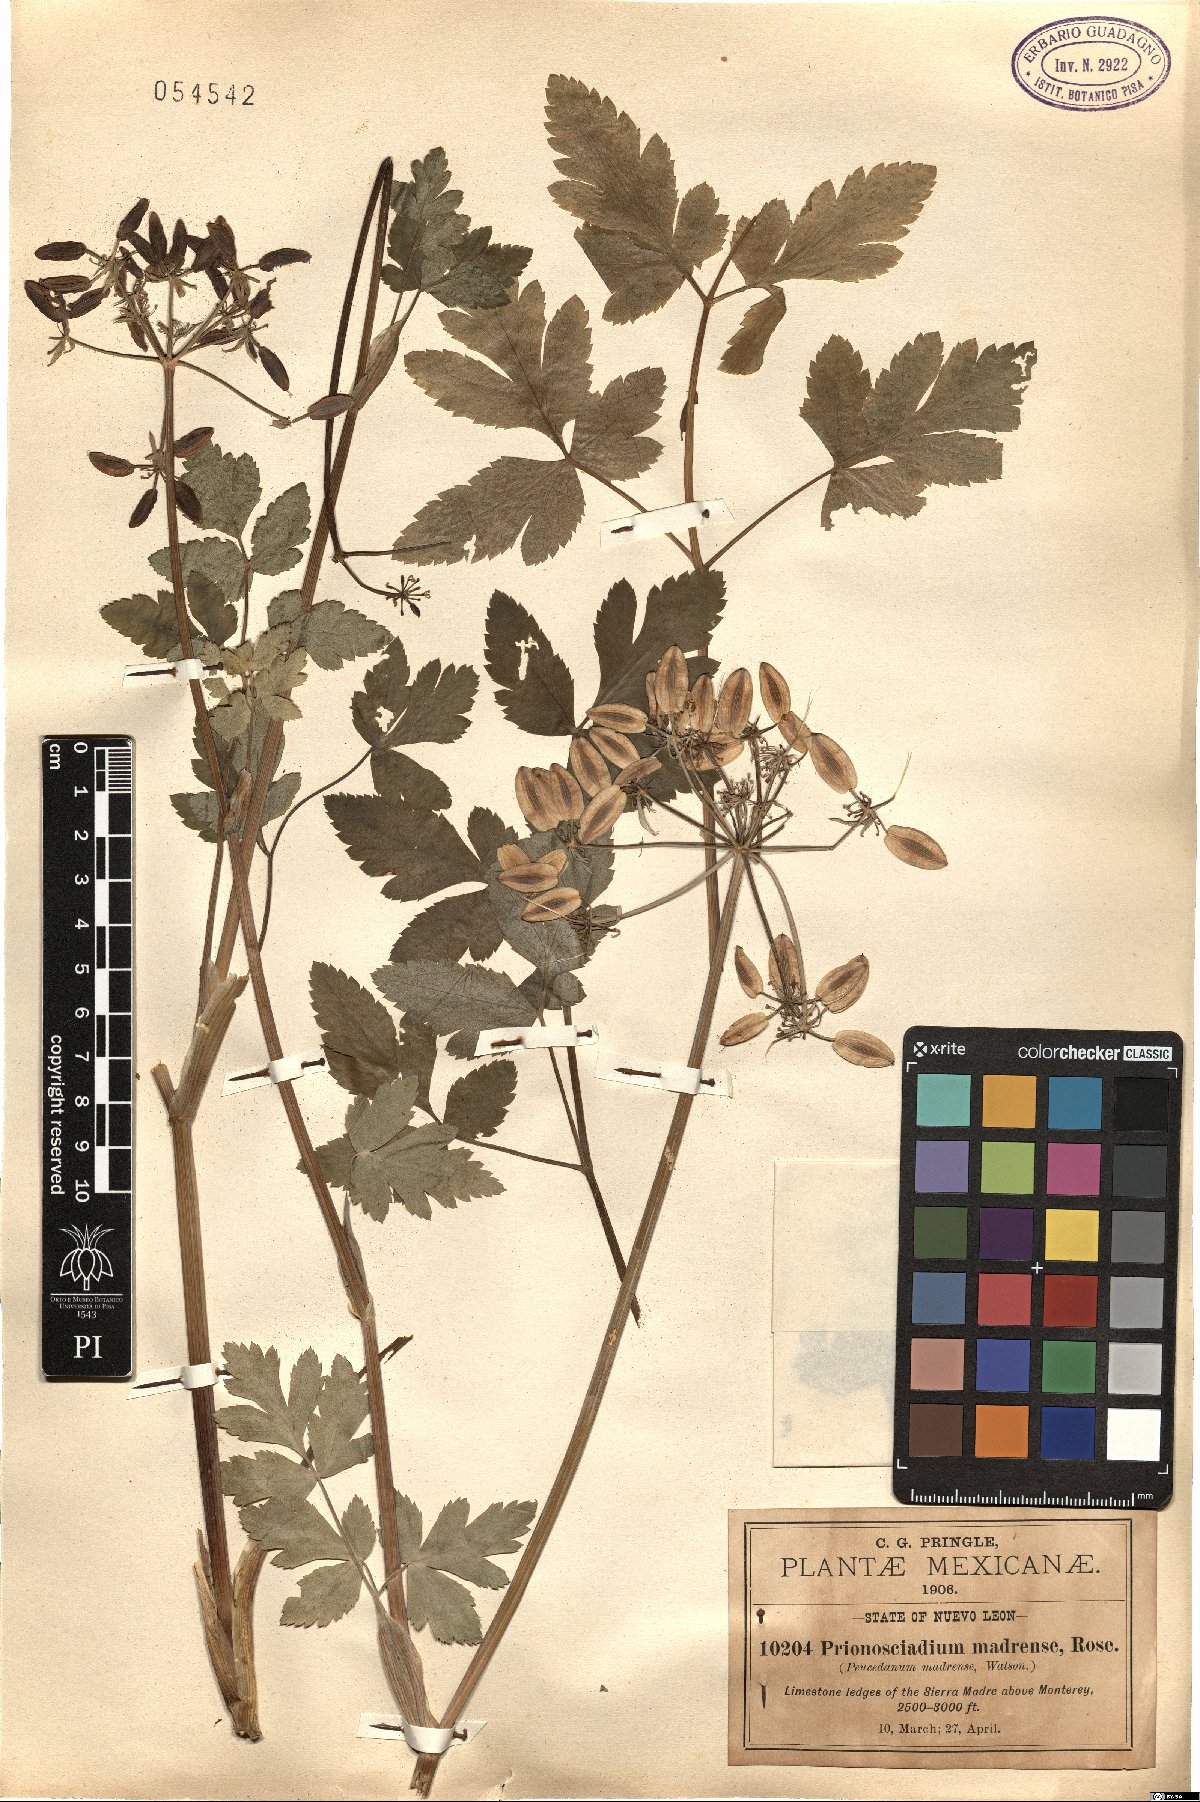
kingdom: Plantae
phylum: Tracheophyta
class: Magnoliopsida
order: Apiales
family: Apiaceae
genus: Prionosciadium
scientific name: Prionosciadium madrense
